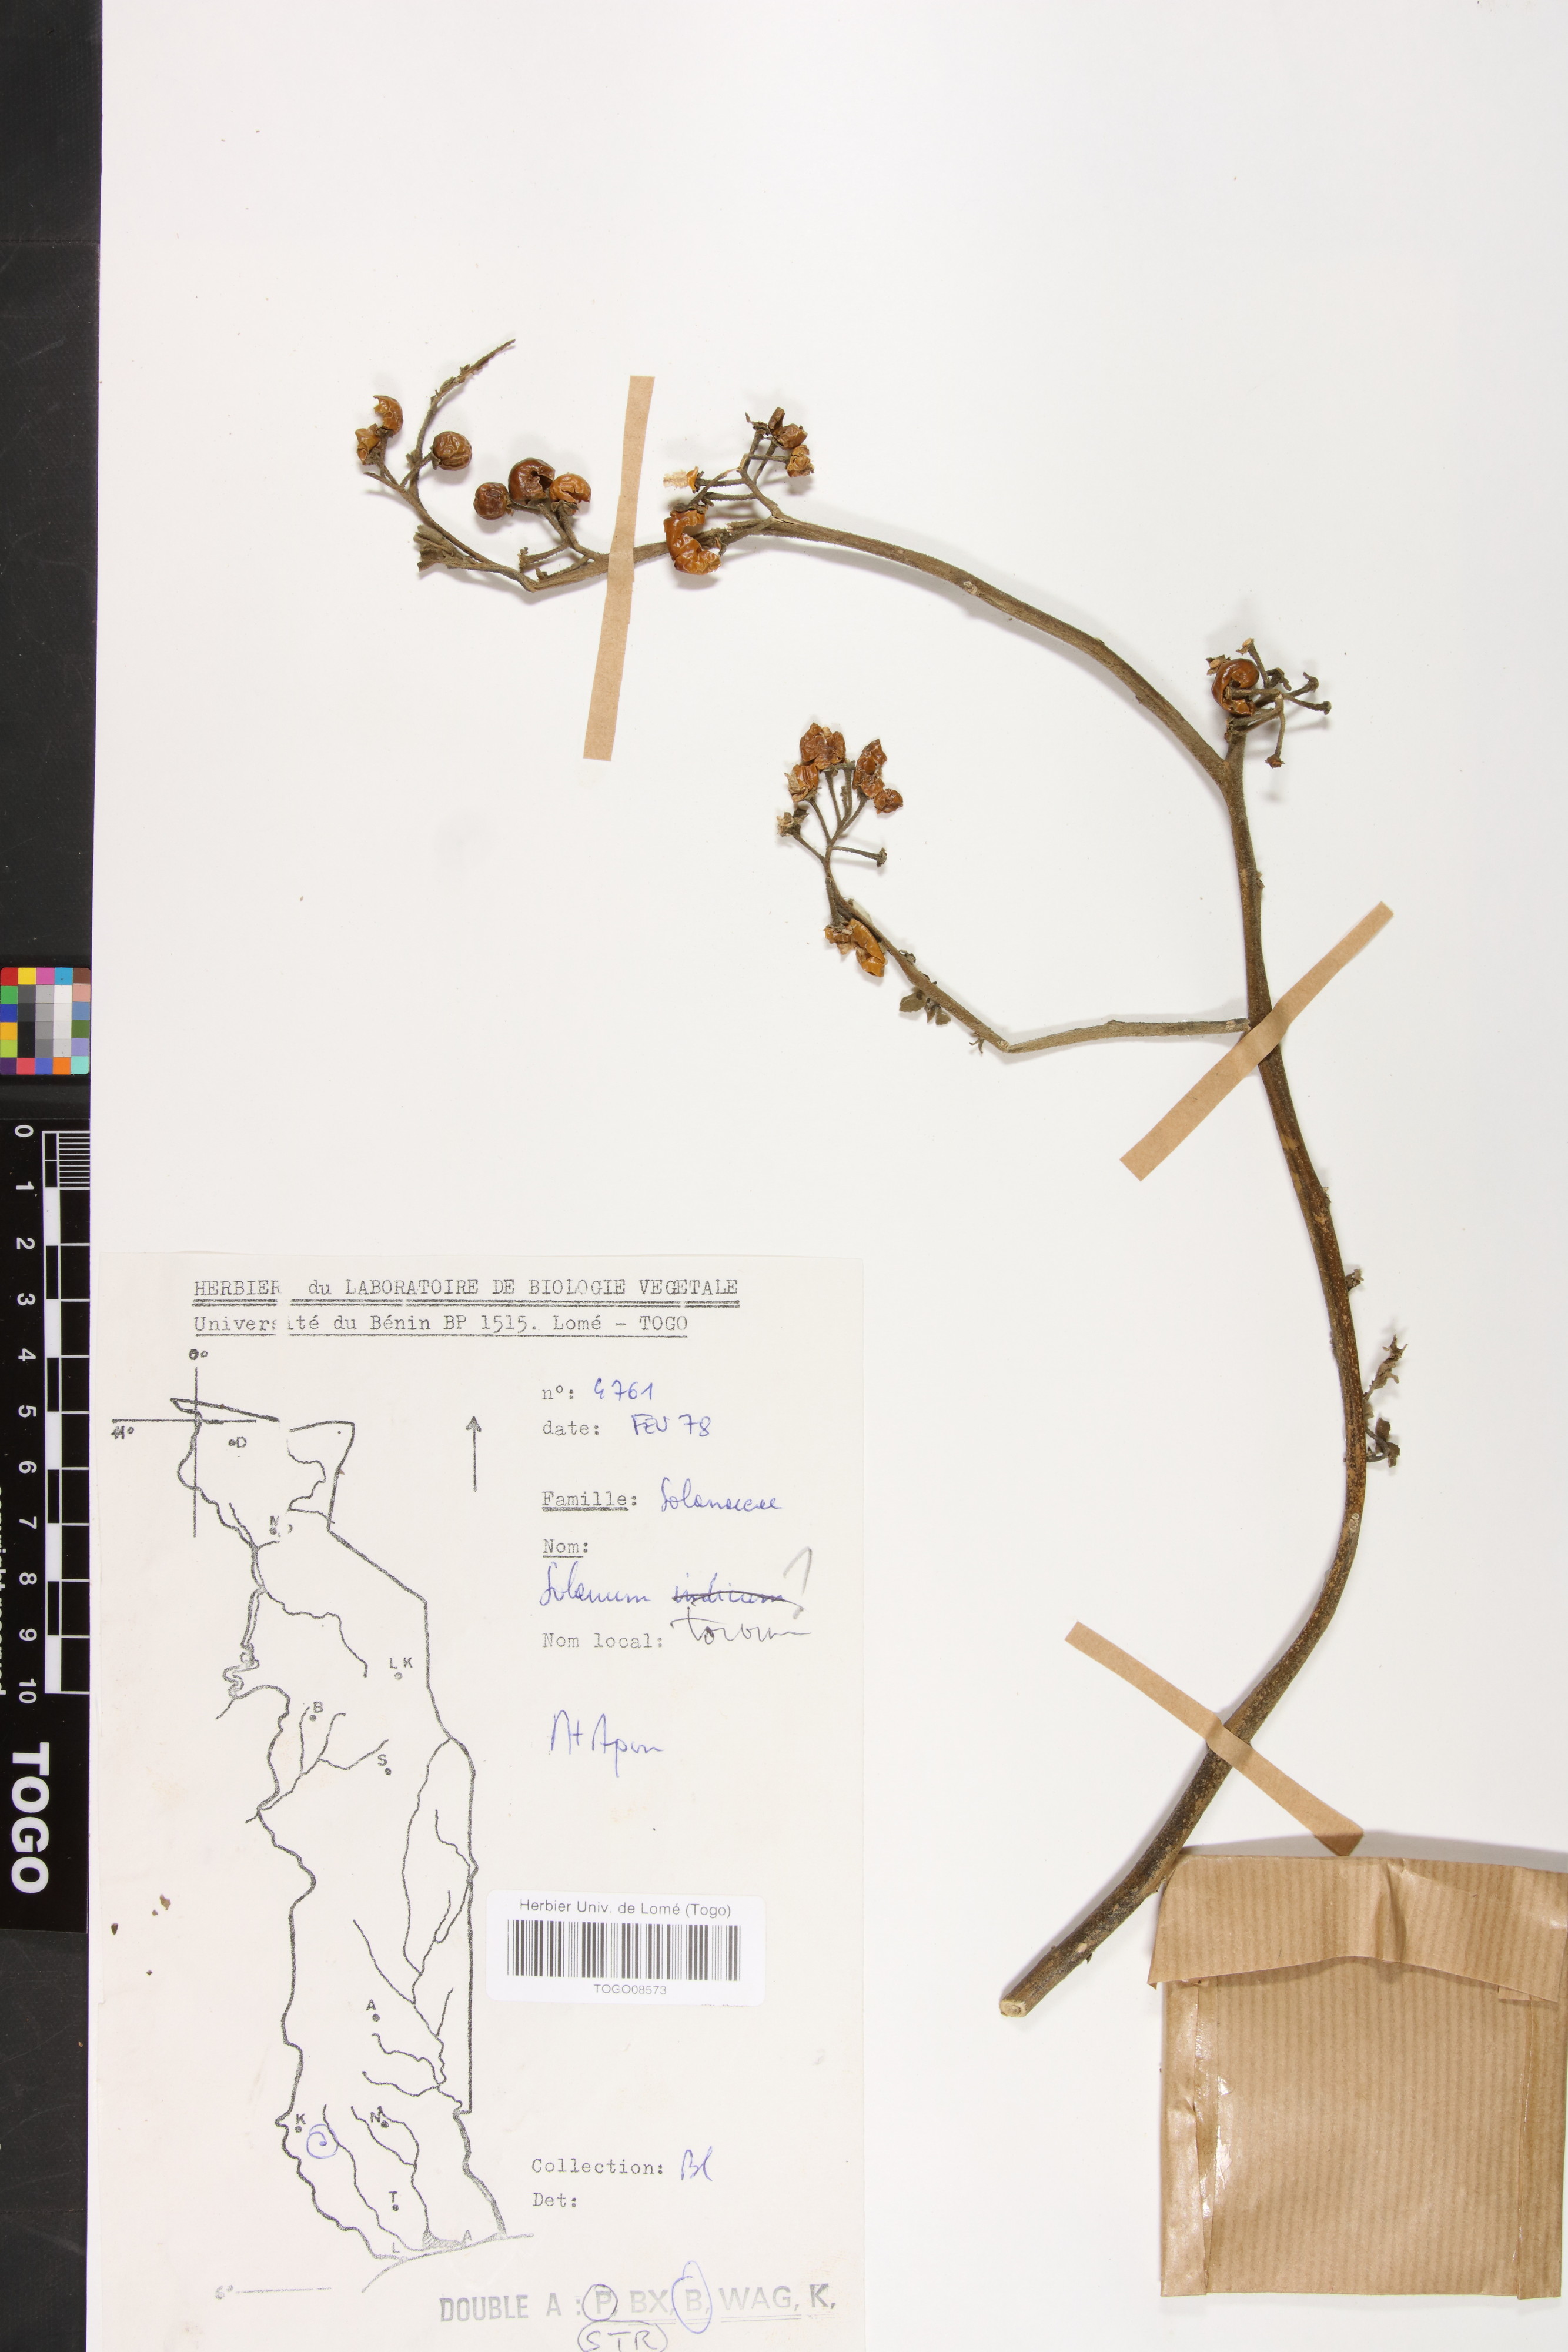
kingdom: Plantae
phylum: Tracheophyta
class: Magnoliopsida
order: Solanales
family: Solanaceae
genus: Solanum
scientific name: Solanum torvum
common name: Turkey berry
